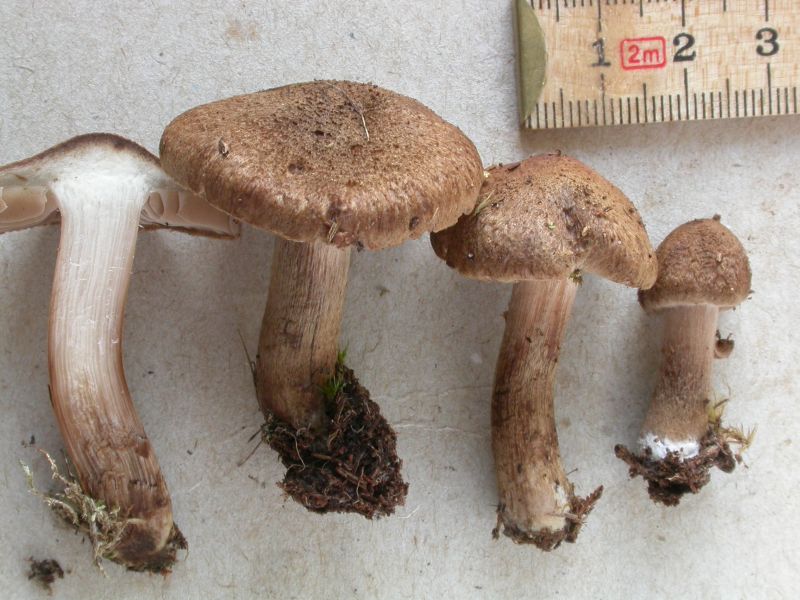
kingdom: Fungi
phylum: Basidiomycota
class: Agaricomycetes
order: Agaricales
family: Inocybaceae
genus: Inocybe
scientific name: Inocybe subcarpta
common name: plantage-trævlhat
